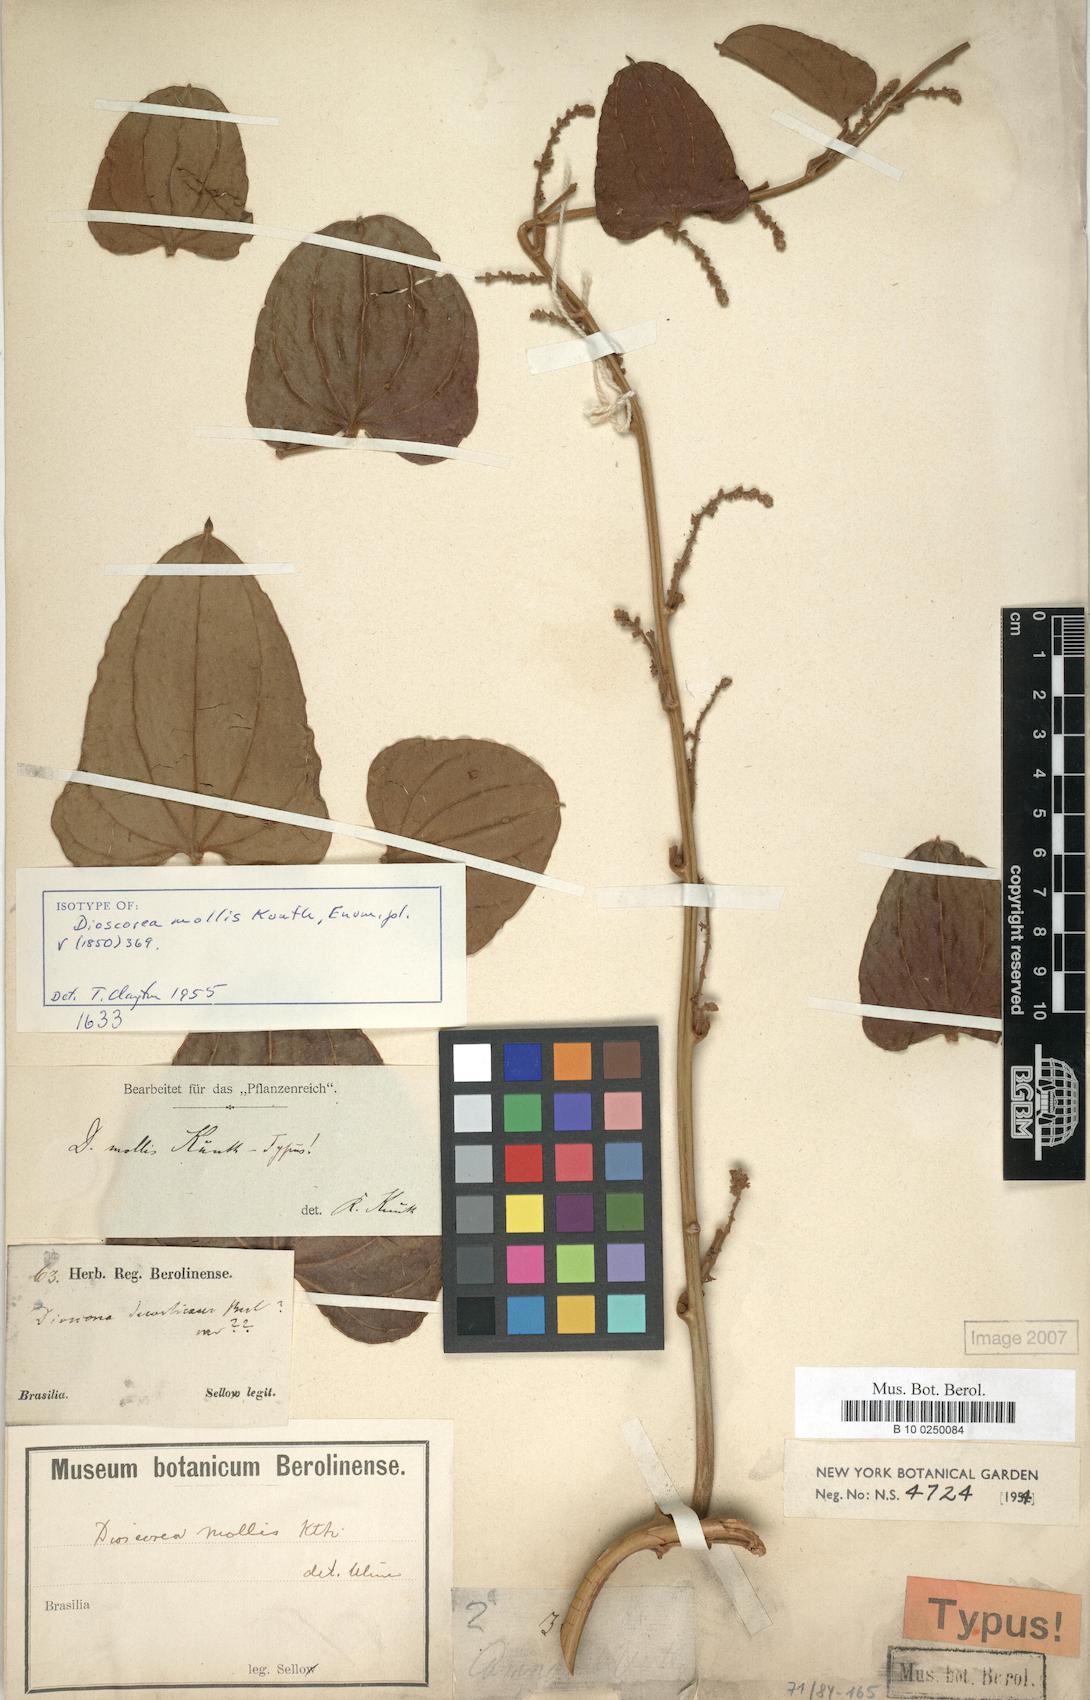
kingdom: Plantae
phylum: Tracheophyta
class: Liliopsida
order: Dioscoreales
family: Dioscoreaceae
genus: Dioscorea
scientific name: Dioscorea mollis
